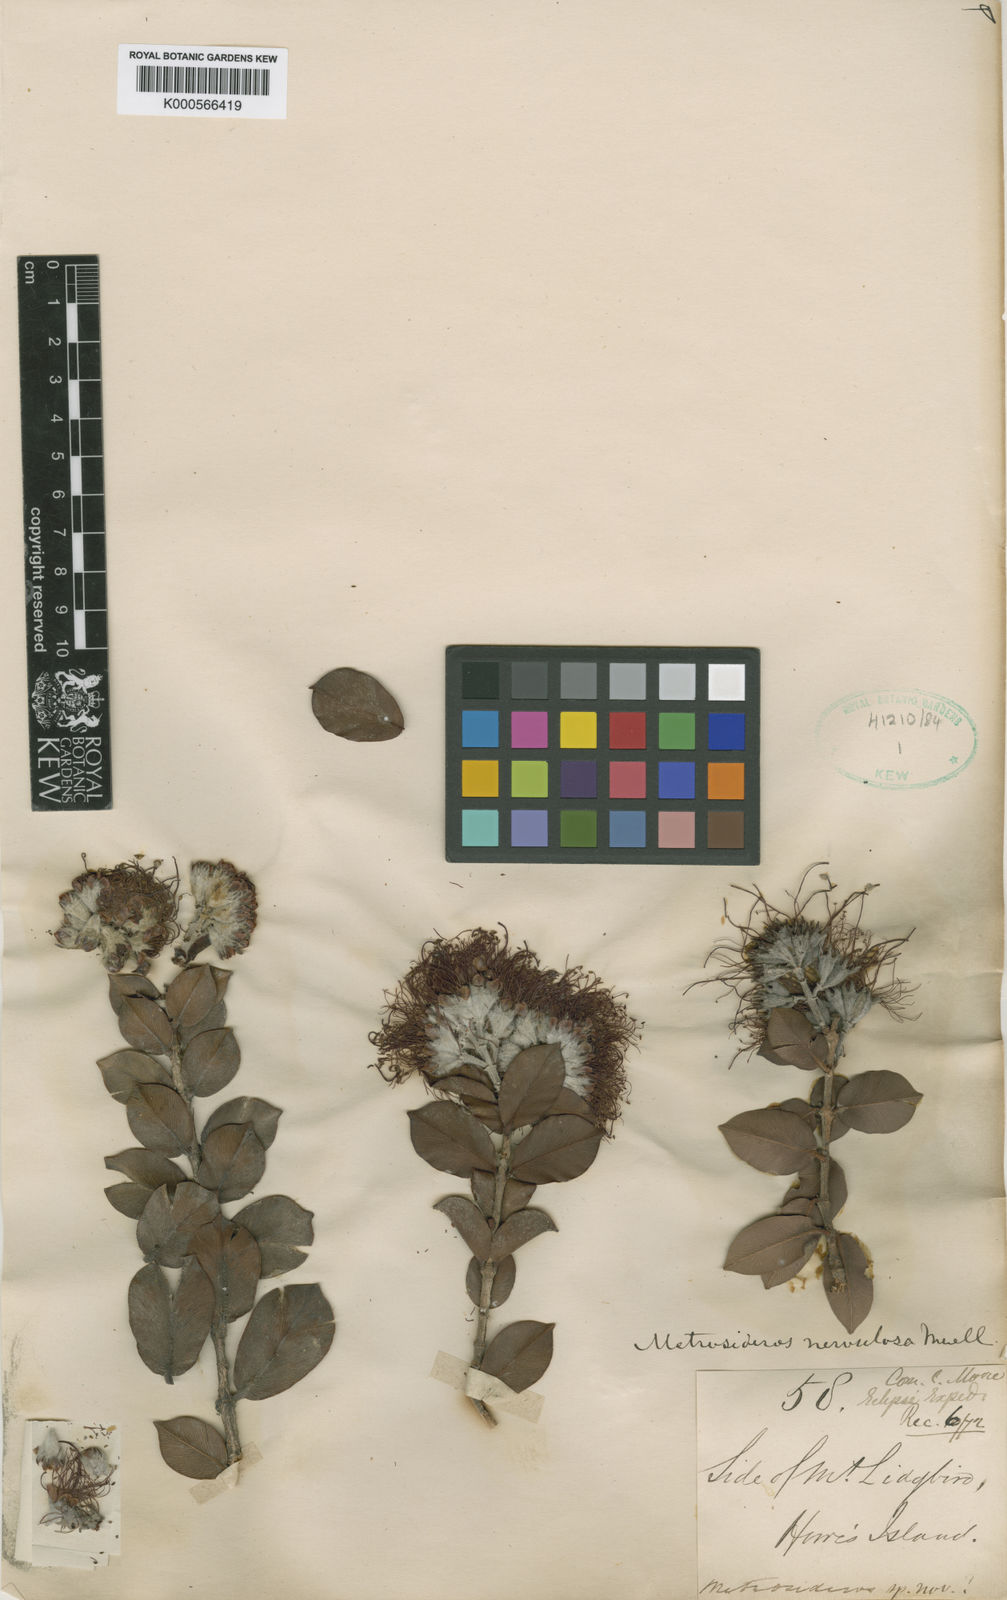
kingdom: Plantae
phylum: Tracheophyta
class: Magnoliopsida
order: Myrtales
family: Myrtaceae
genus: Metrosideros
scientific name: Metrosideros nervulosa
